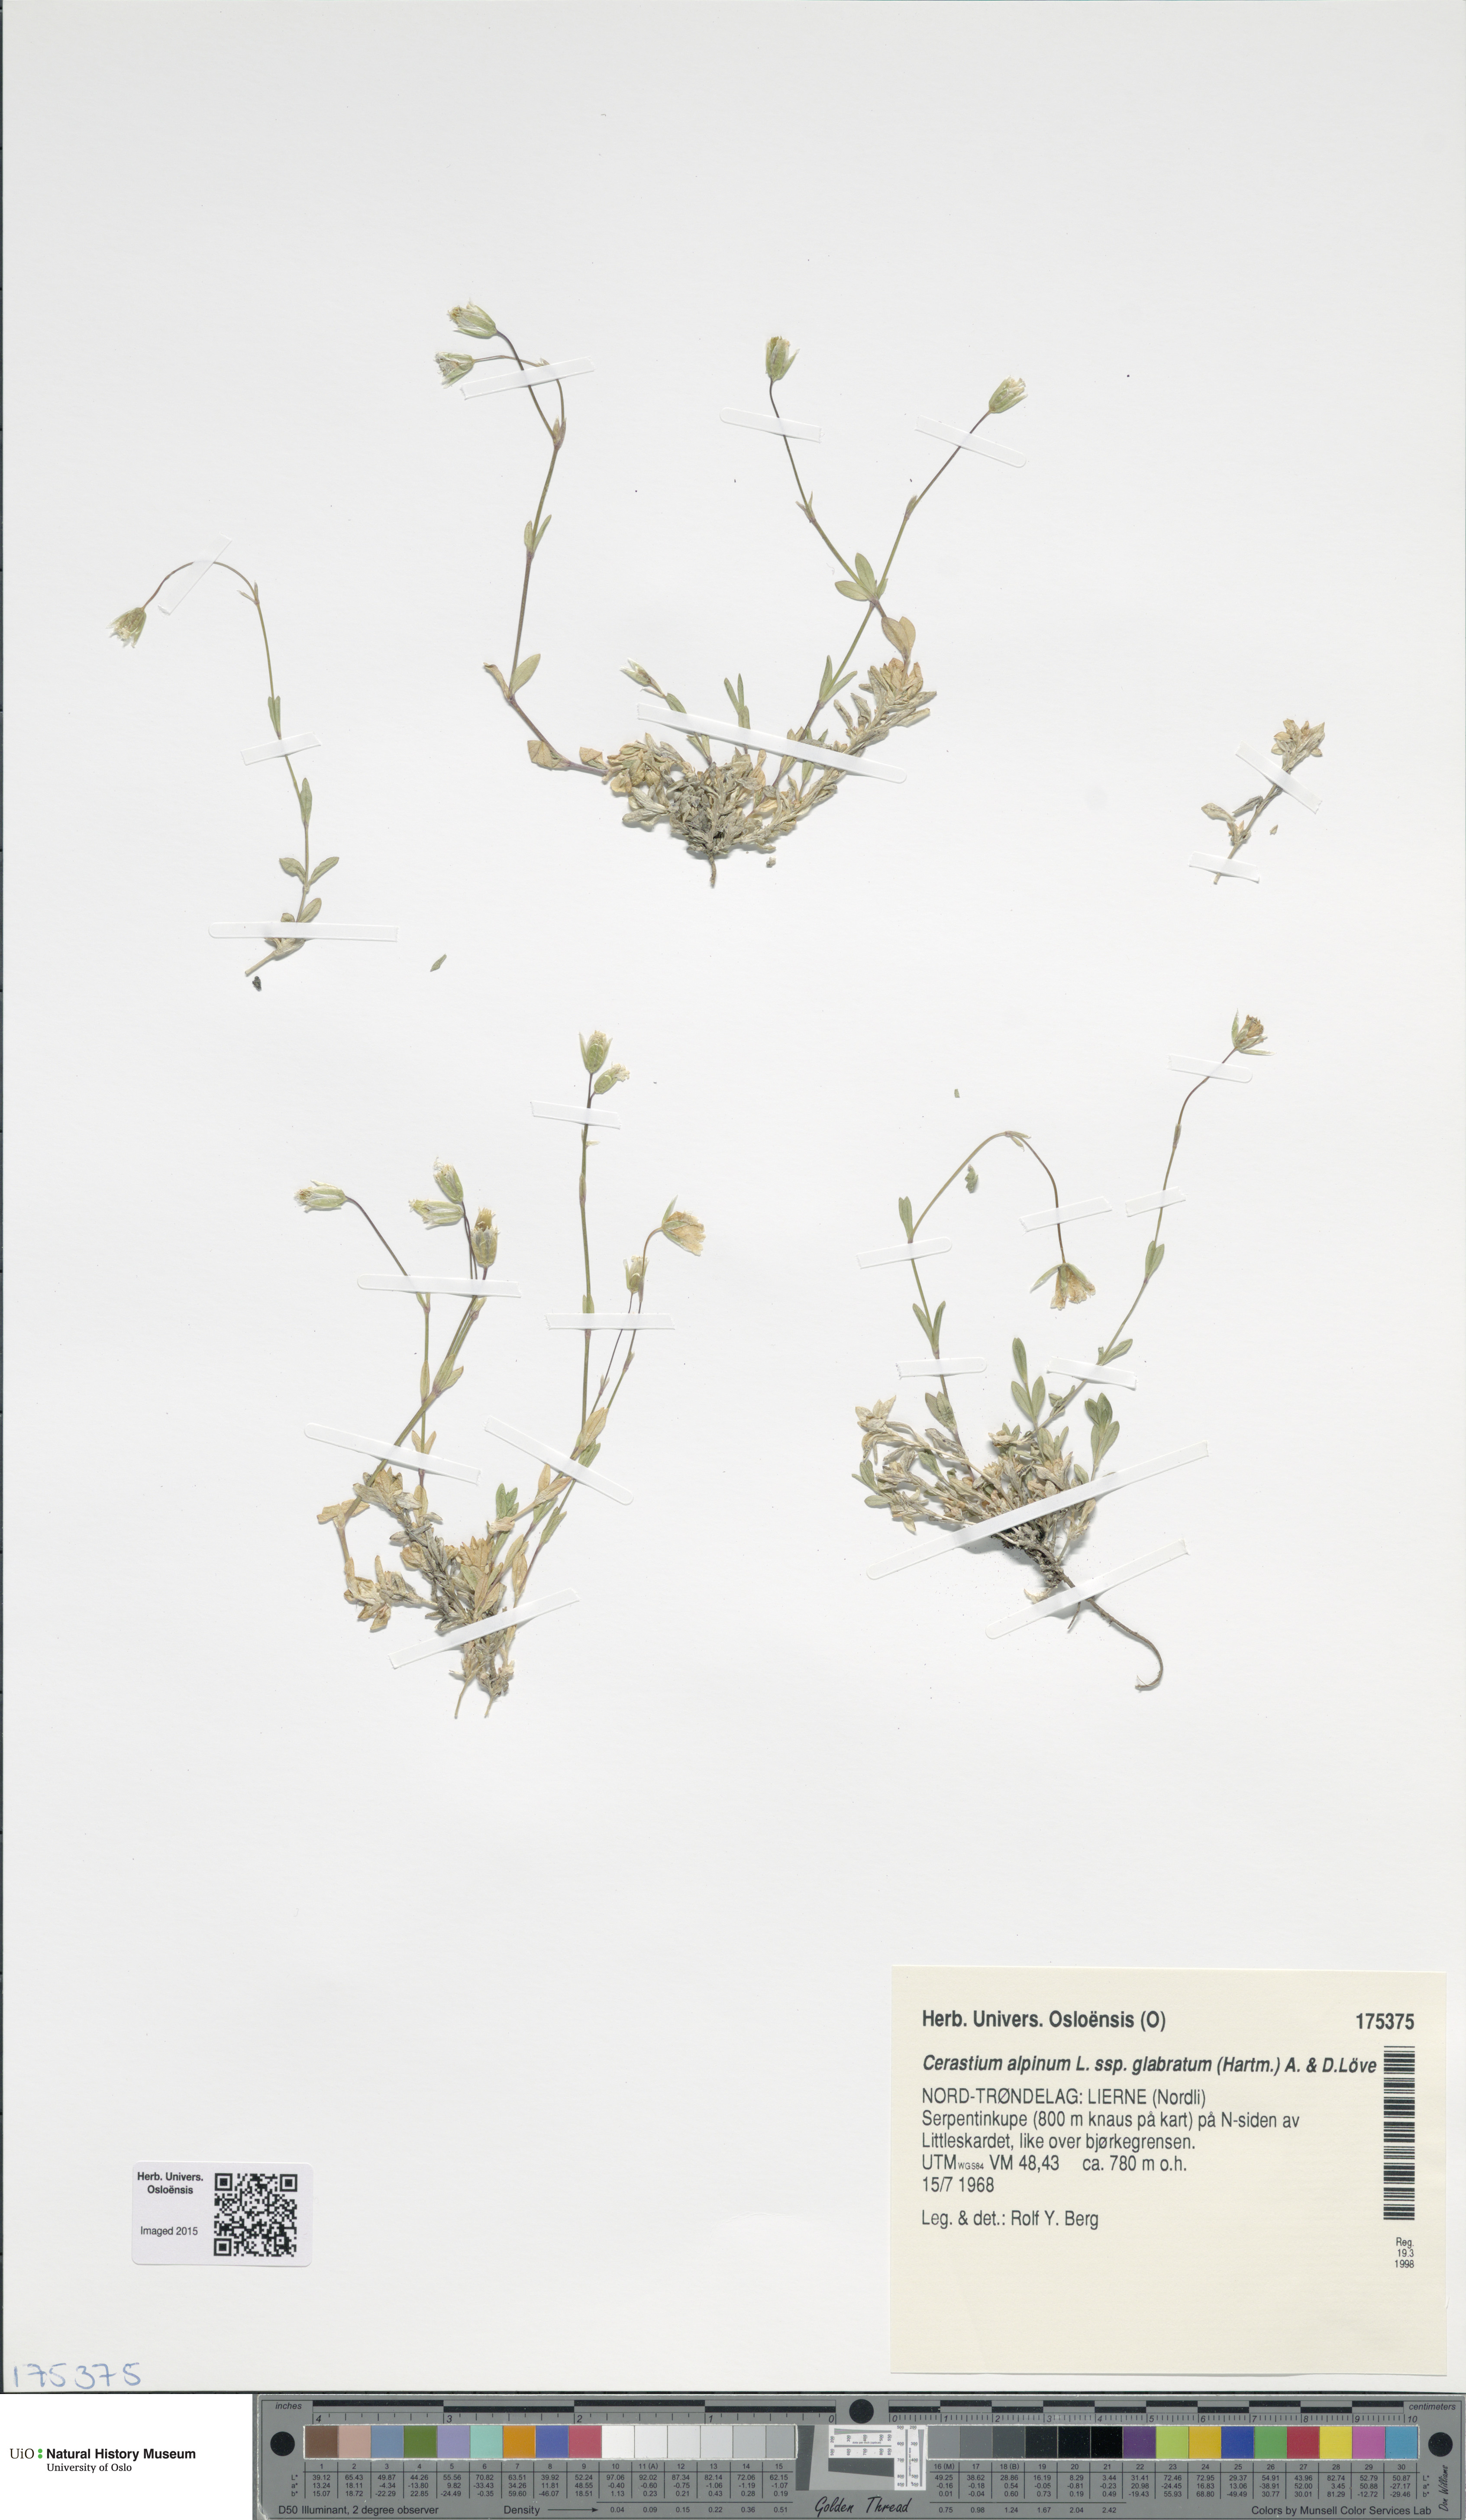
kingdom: Plantae
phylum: Tracheophyta
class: Magnoliopsida
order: Caryophyllales
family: Caryophyllaceae
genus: Cerastium
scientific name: Cerastium alpinum
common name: Alpine mouse-ear
